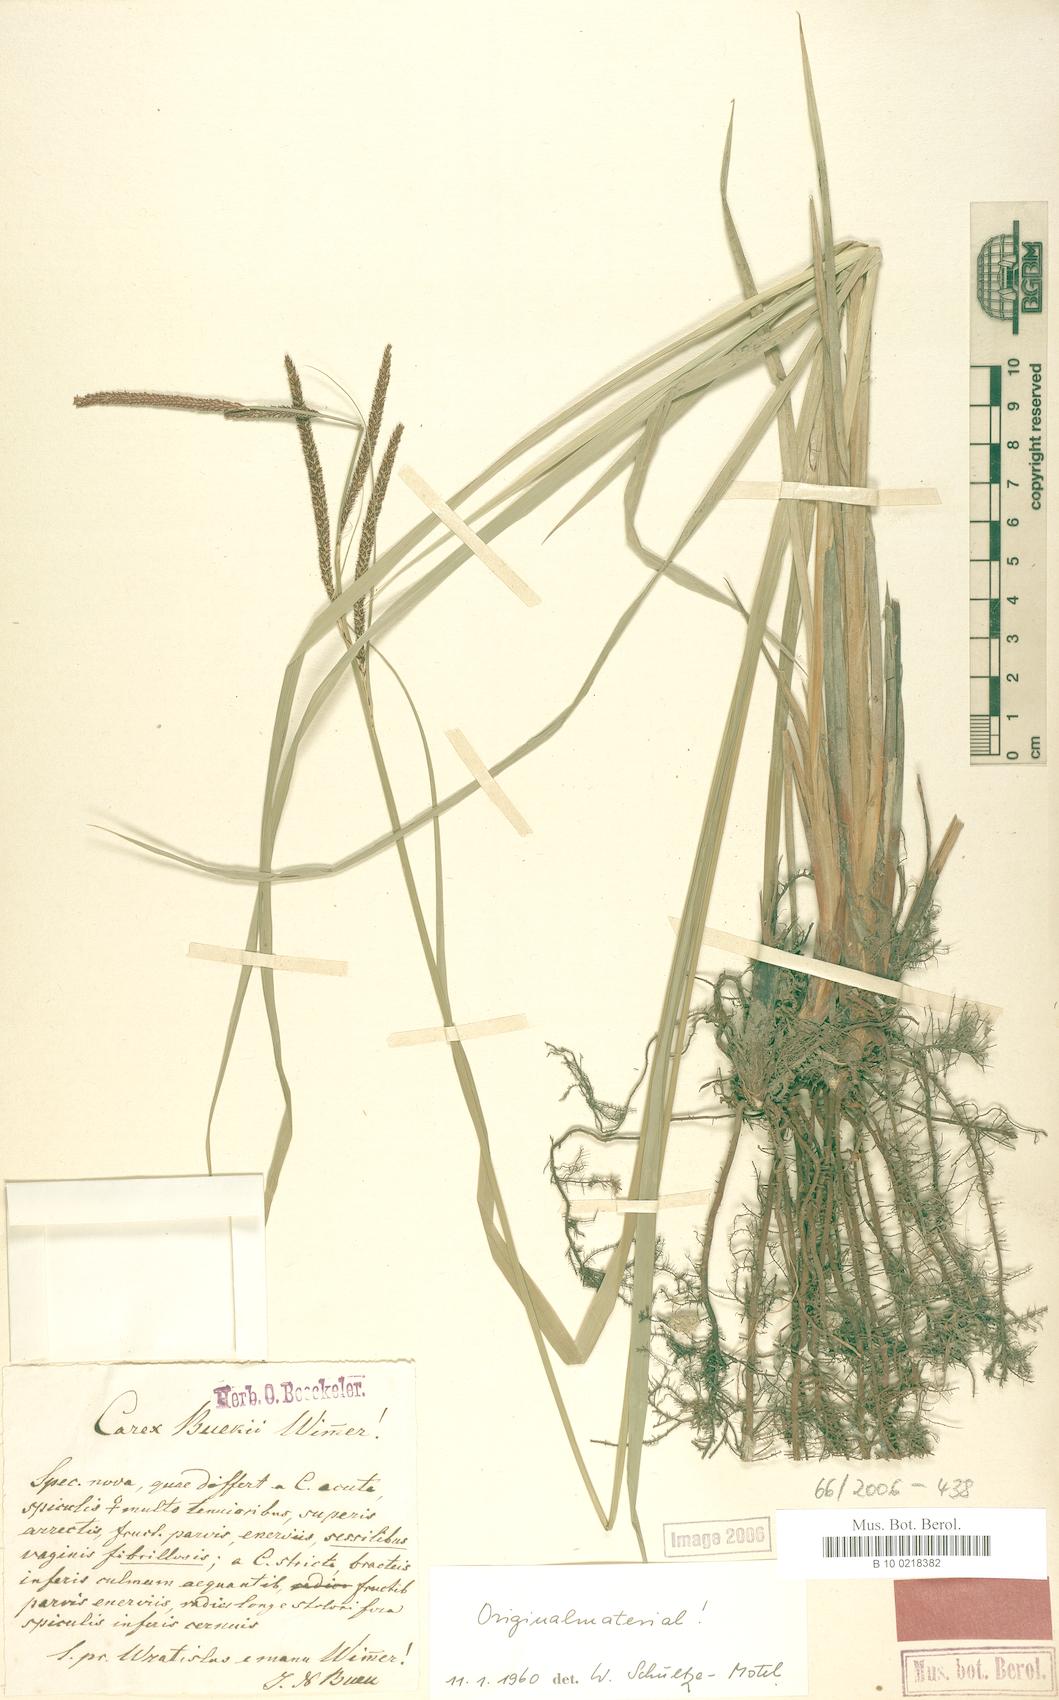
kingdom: Plantae
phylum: Tracheophyta
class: Liliopsida
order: Poales
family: Cyperaceae
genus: Carex
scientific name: Carex buekii
